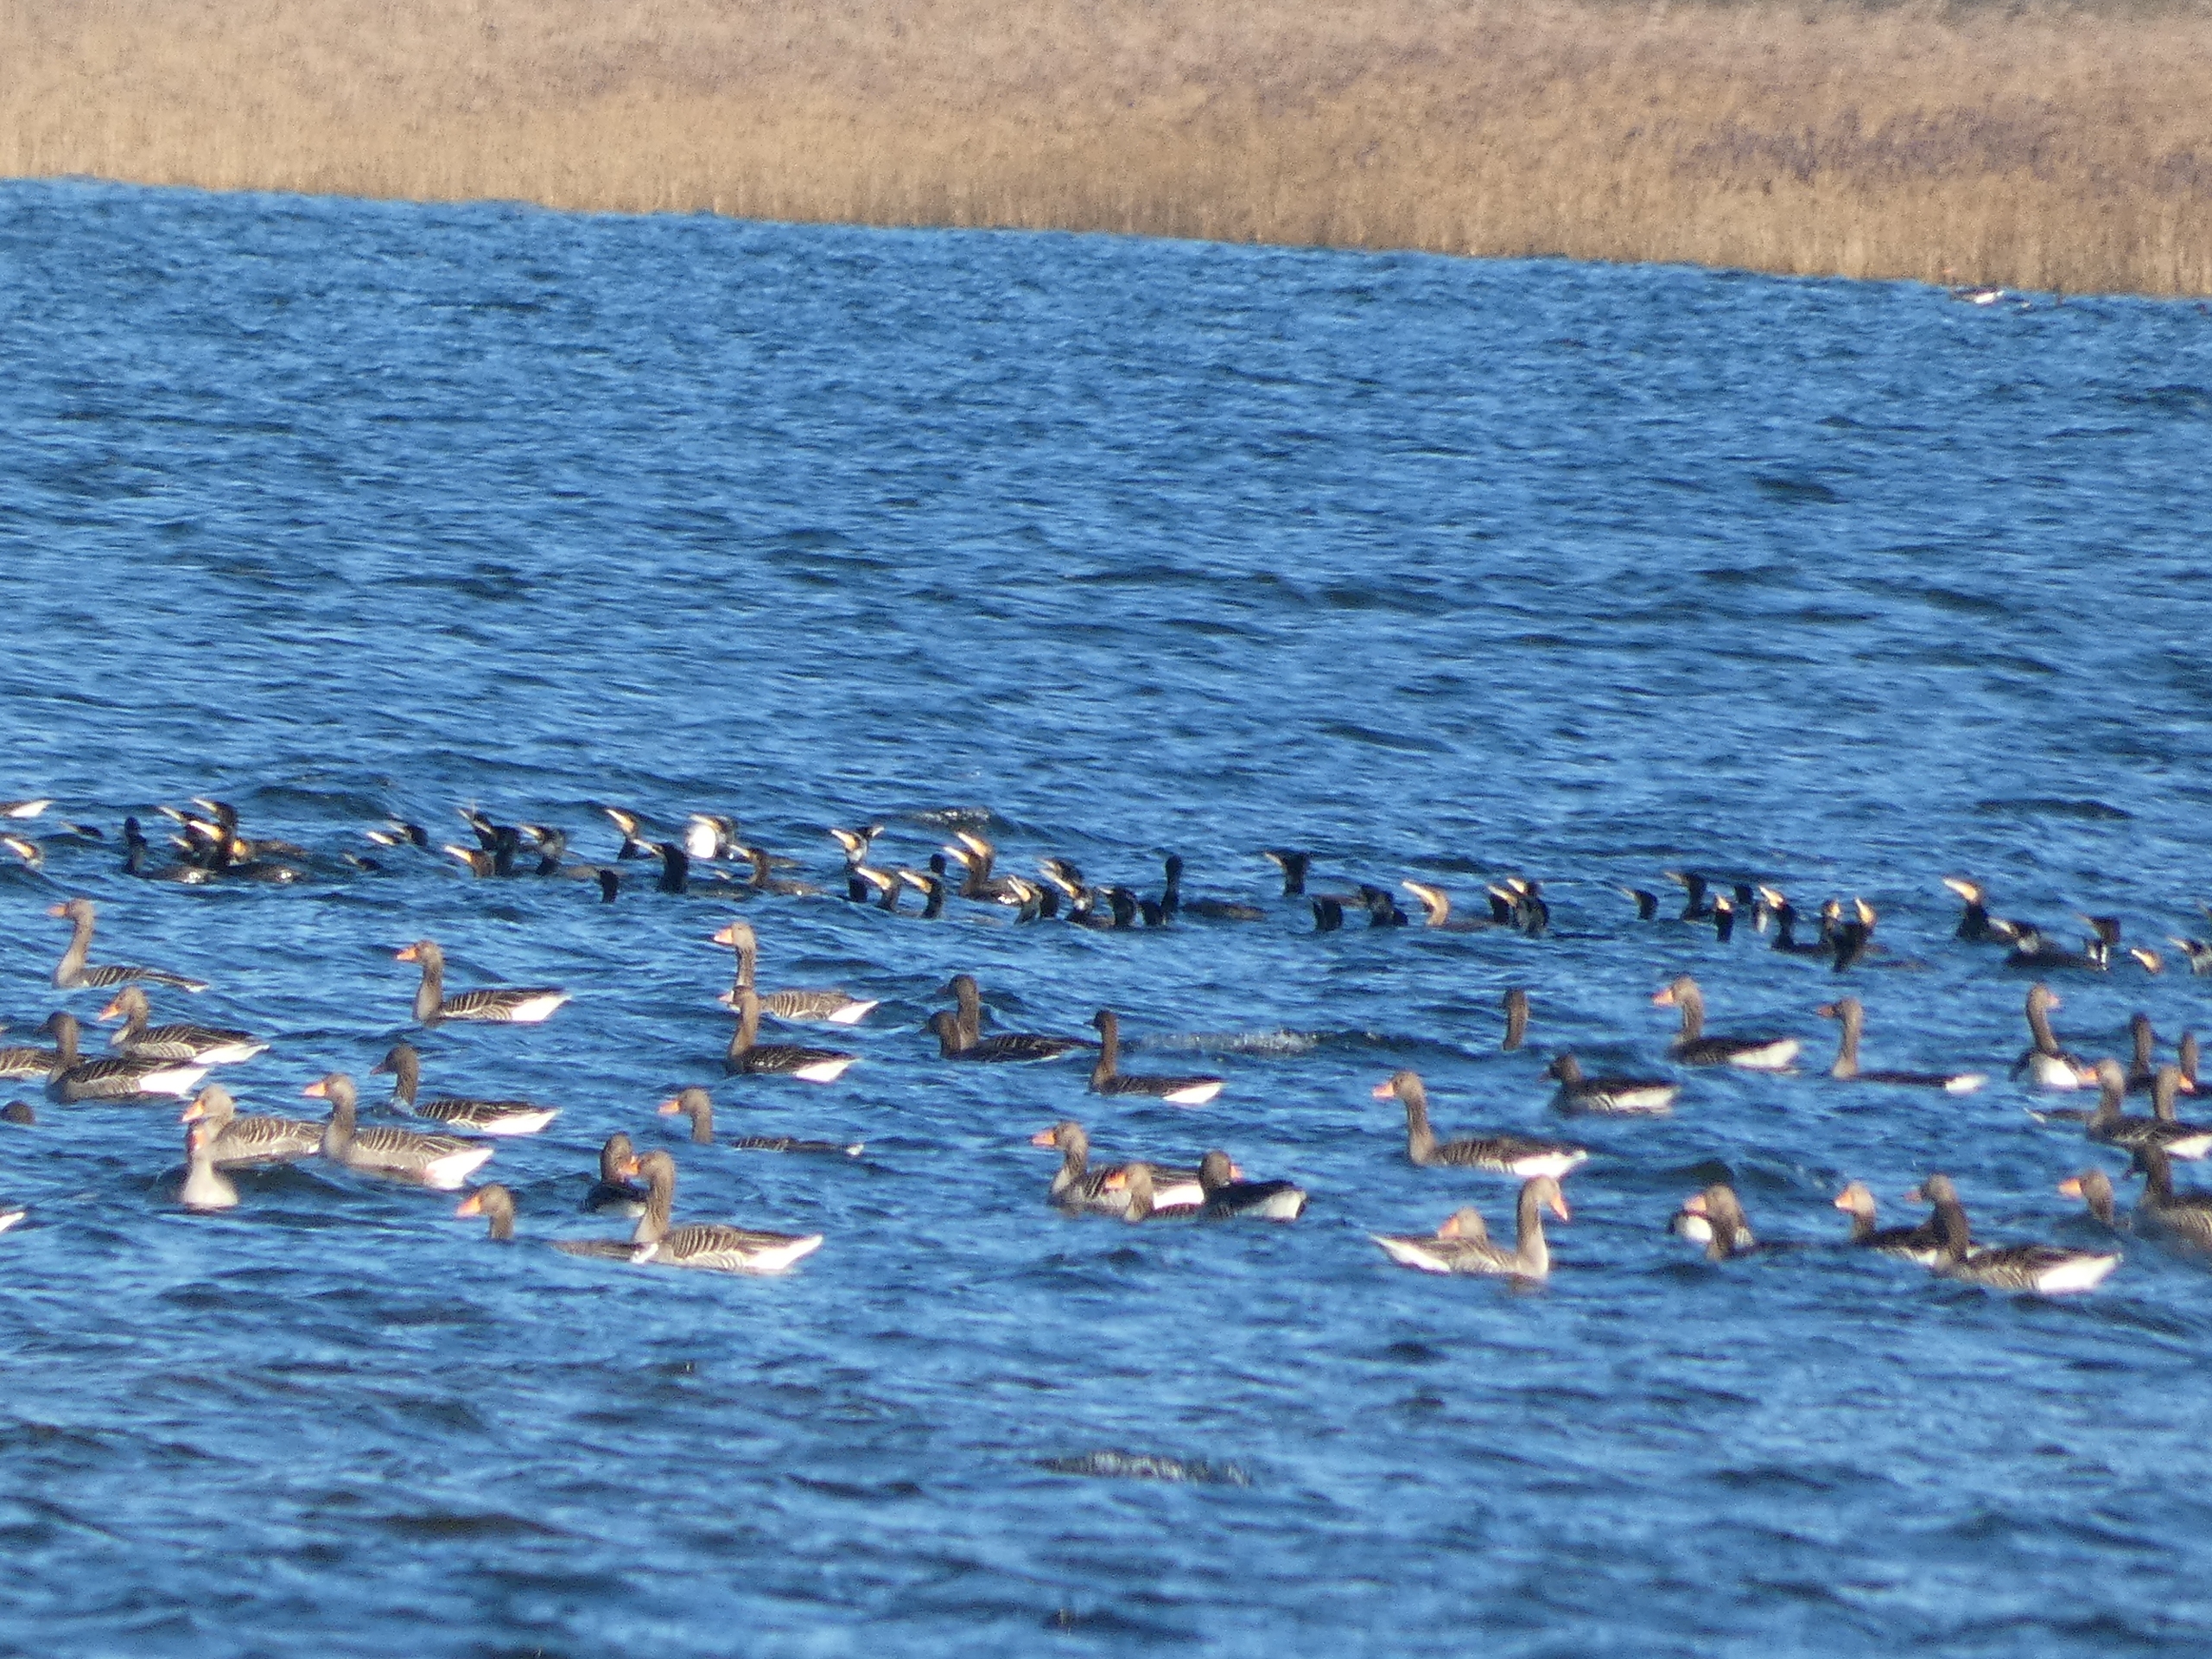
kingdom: Animalia
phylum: Chordata
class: Aves
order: Suliformes
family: Phalacrocoracidae
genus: Phalacrocorax
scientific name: Phalacrocorax carbo
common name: Skarv
